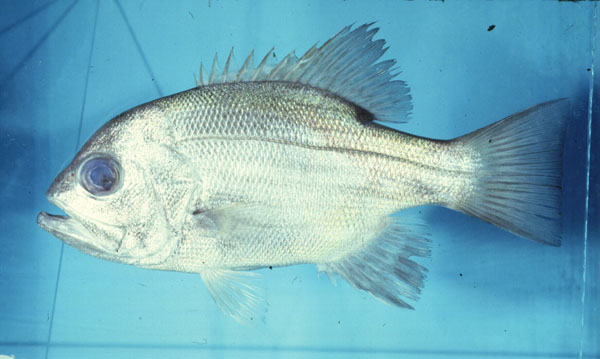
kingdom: Animalia
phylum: Chordata
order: Perciformes
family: Glaucosomatidae
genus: Glaucosoma
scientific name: Glaucosoma hebraicum
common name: West australian dhufish
